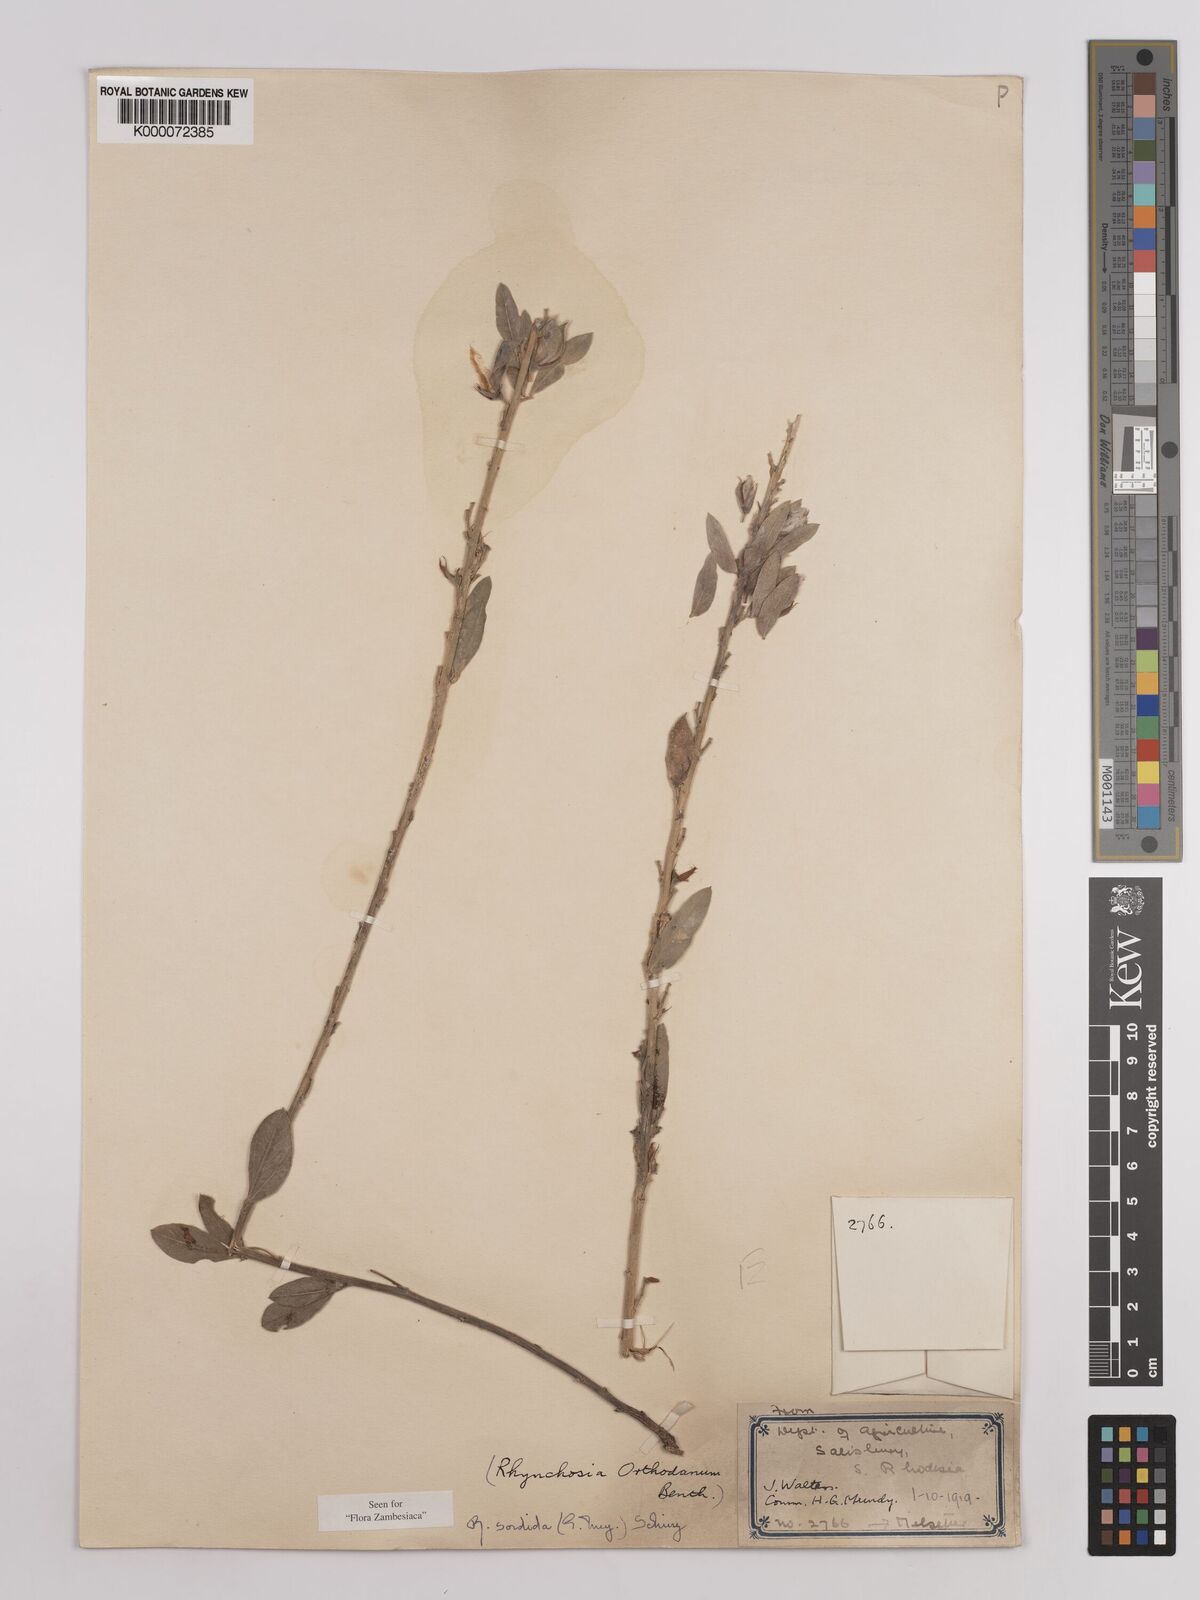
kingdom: Plantae
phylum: Tracheophyta
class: Magnoliopsida
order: Fabales
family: Fabaceae
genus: Rhynchosia
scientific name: Rhynchosia sordida
